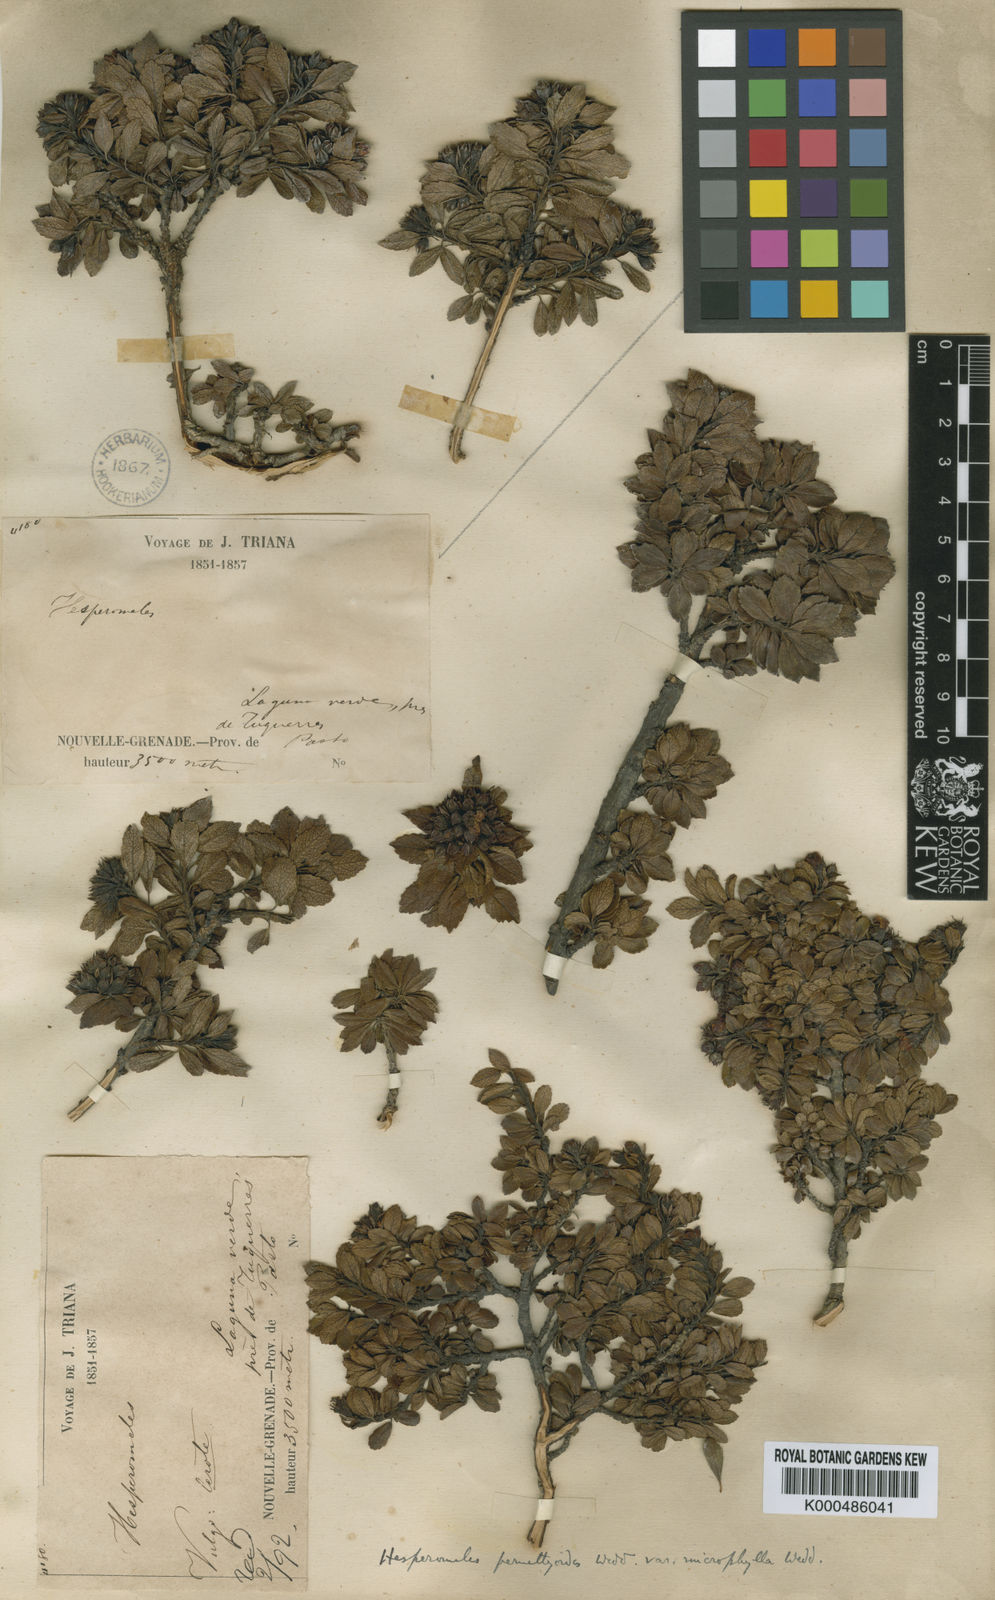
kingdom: Plantae
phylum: Tracheophyta
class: Magnoliopsida
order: Rosales
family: Rosaceae
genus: Hesperomeles
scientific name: Hesperomeles obtusifolia
